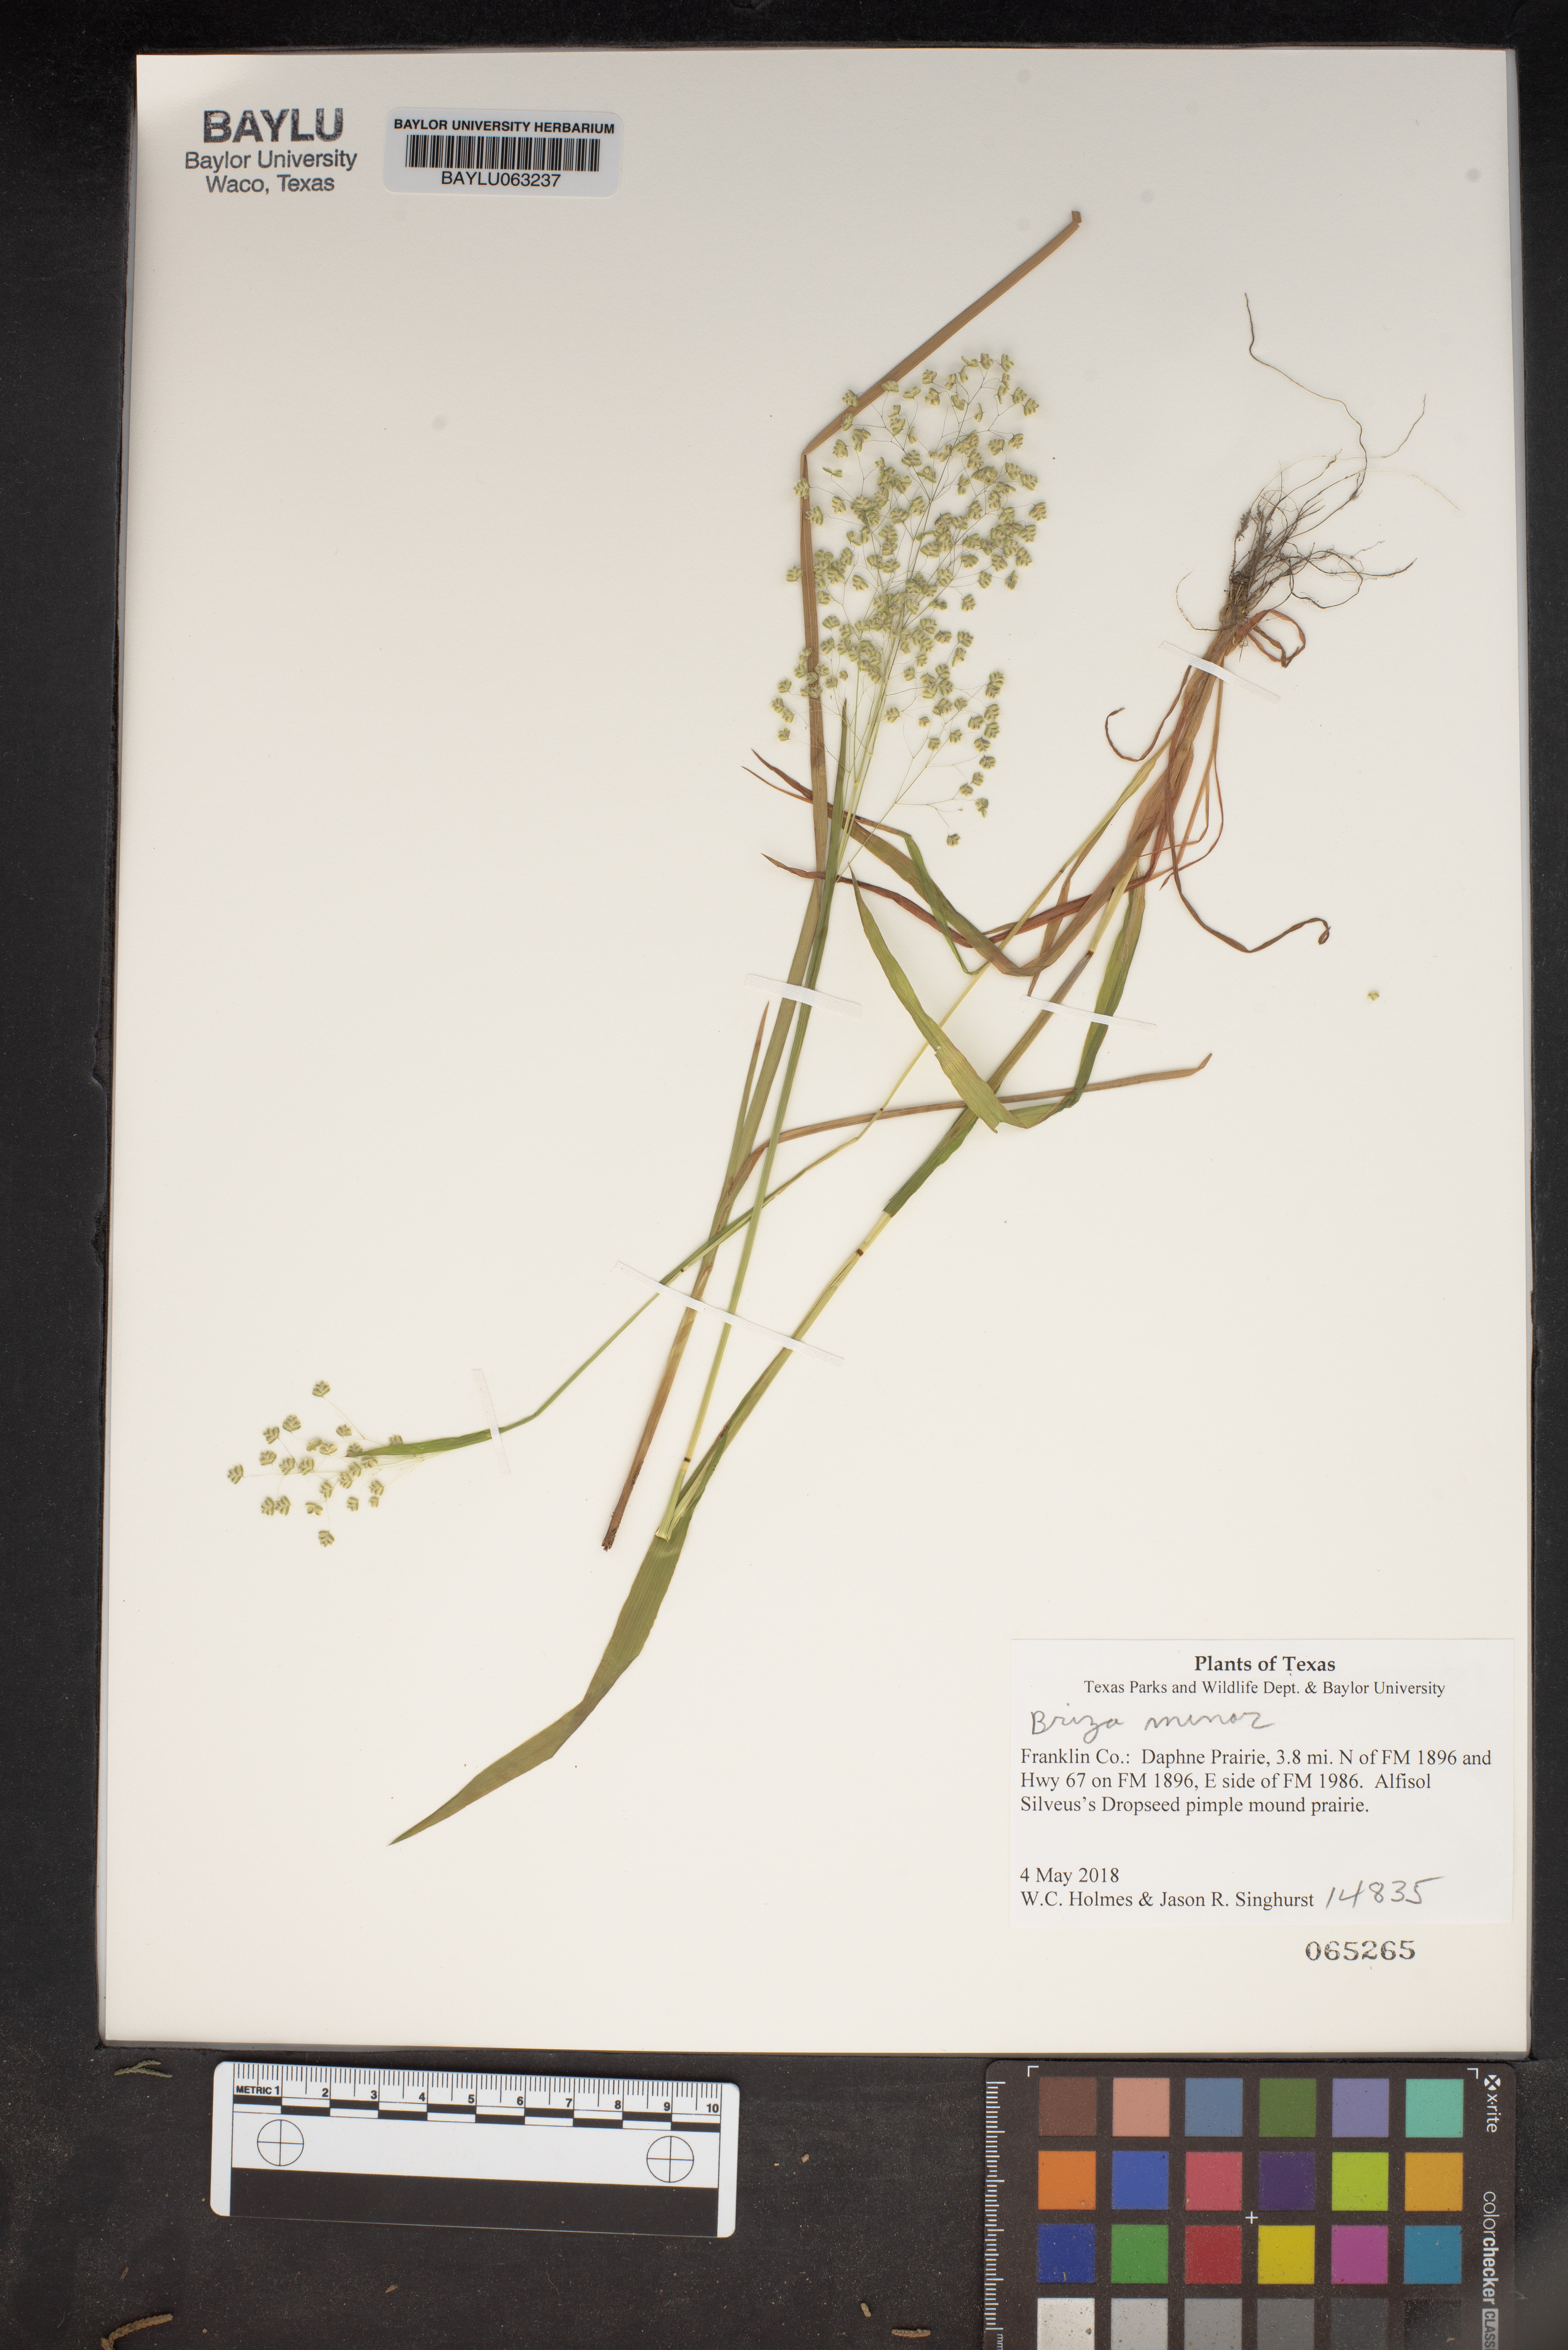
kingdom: Plantae
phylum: Tracheophyta
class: Liliopsida
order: Poales
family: Poaceae
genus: Briza
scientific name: Briza minor
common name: Lesser quaking-grass
